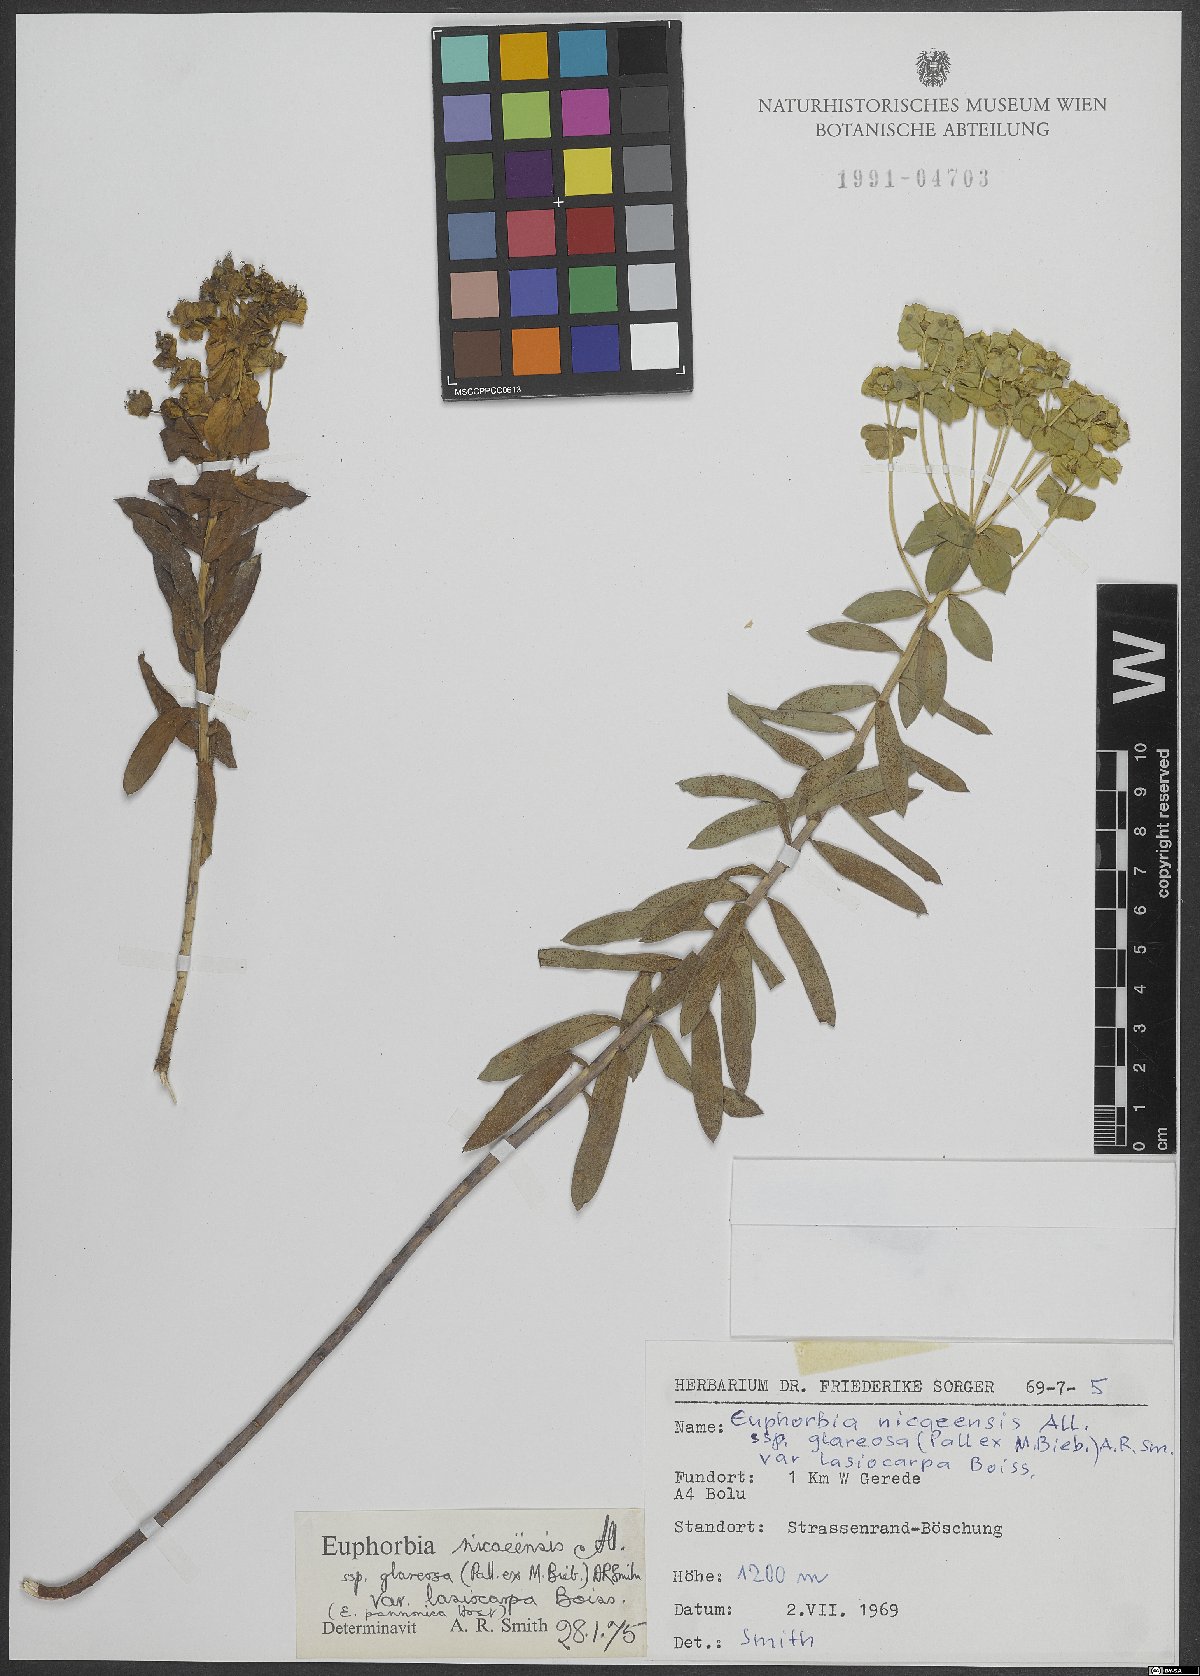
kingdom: Plantae
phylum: Tracheophyta
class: Magnoliopsida
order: Malpighiales
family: Euphorbiaceae
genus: Euphorbia
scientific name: Euphorbia glareosa
